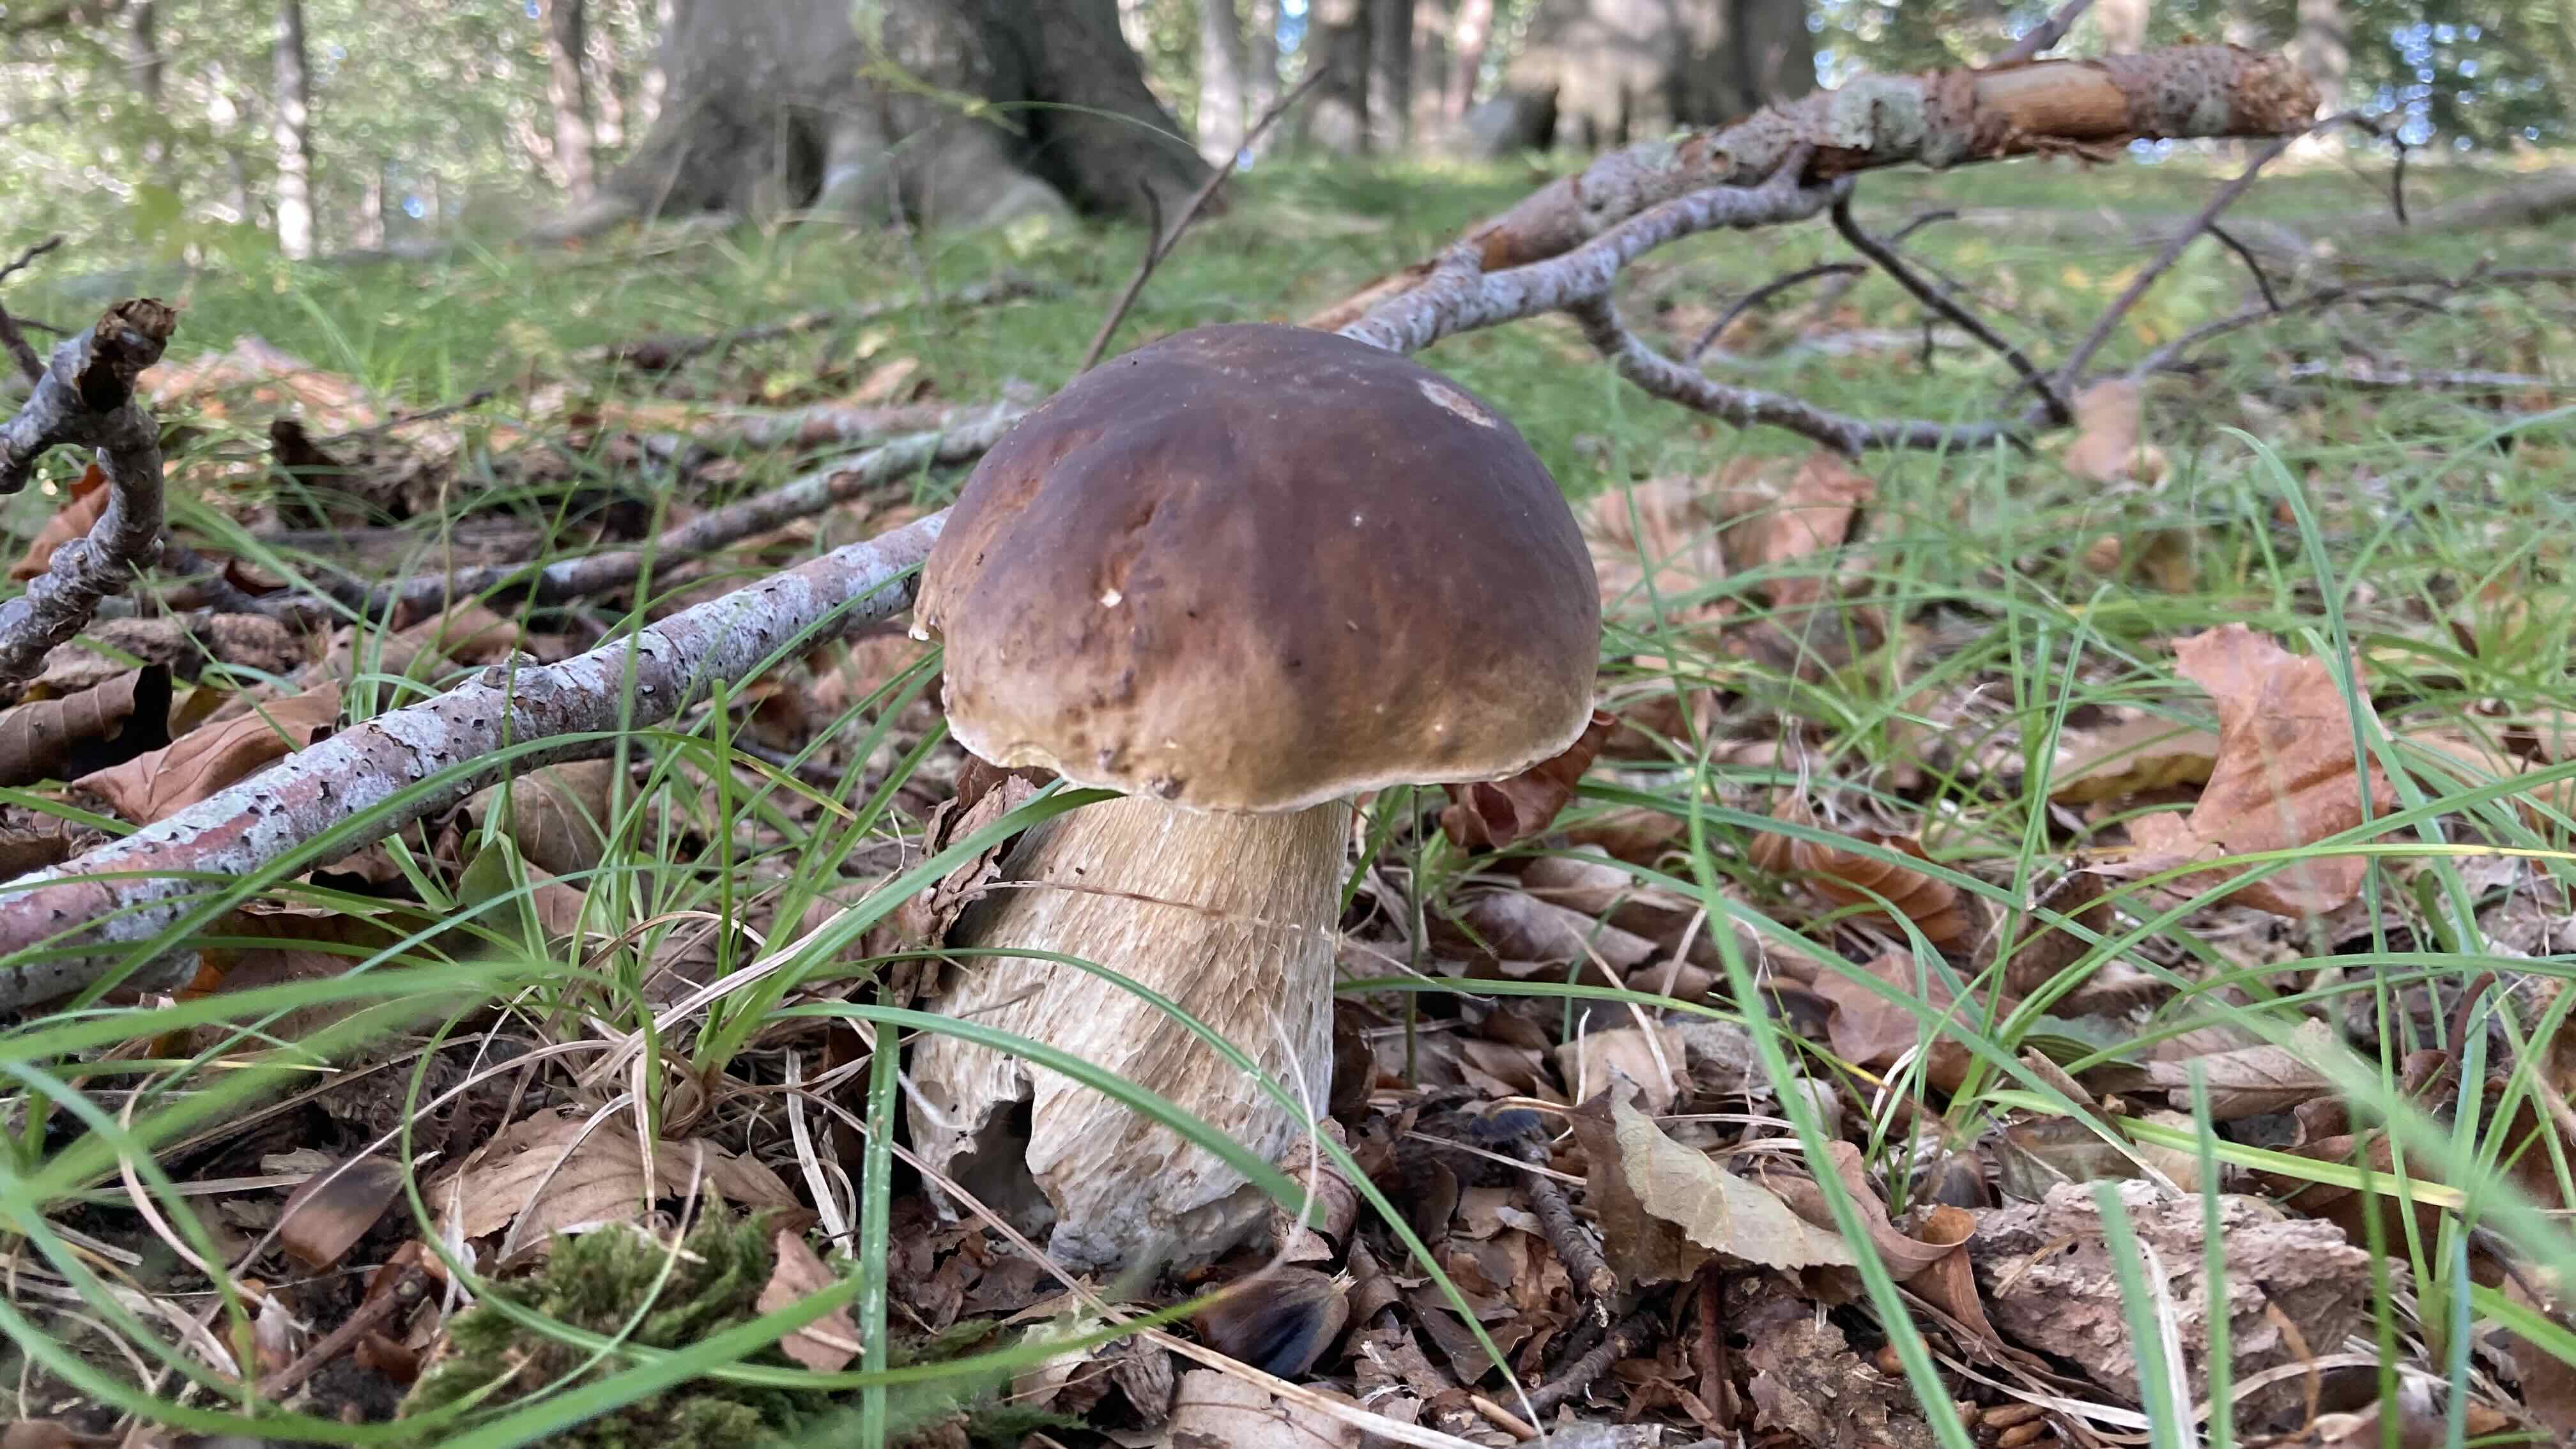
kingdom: Fungi
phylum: Basidiomycota
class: Agaricomycetes
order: Boletales
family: Boletaceae
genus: Boletus
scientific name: Boletus edulis
